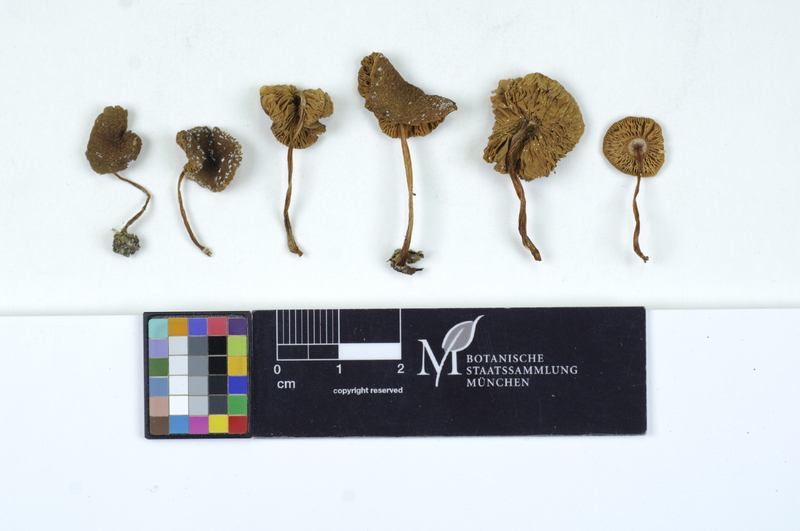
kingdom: Fungi
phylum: Basidiomycota
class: Agaricomycetes
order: Agaricales
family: Pluteaceae
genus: Pluteus
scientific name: Pluteus phlebophorus
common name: Wrinkled shield
